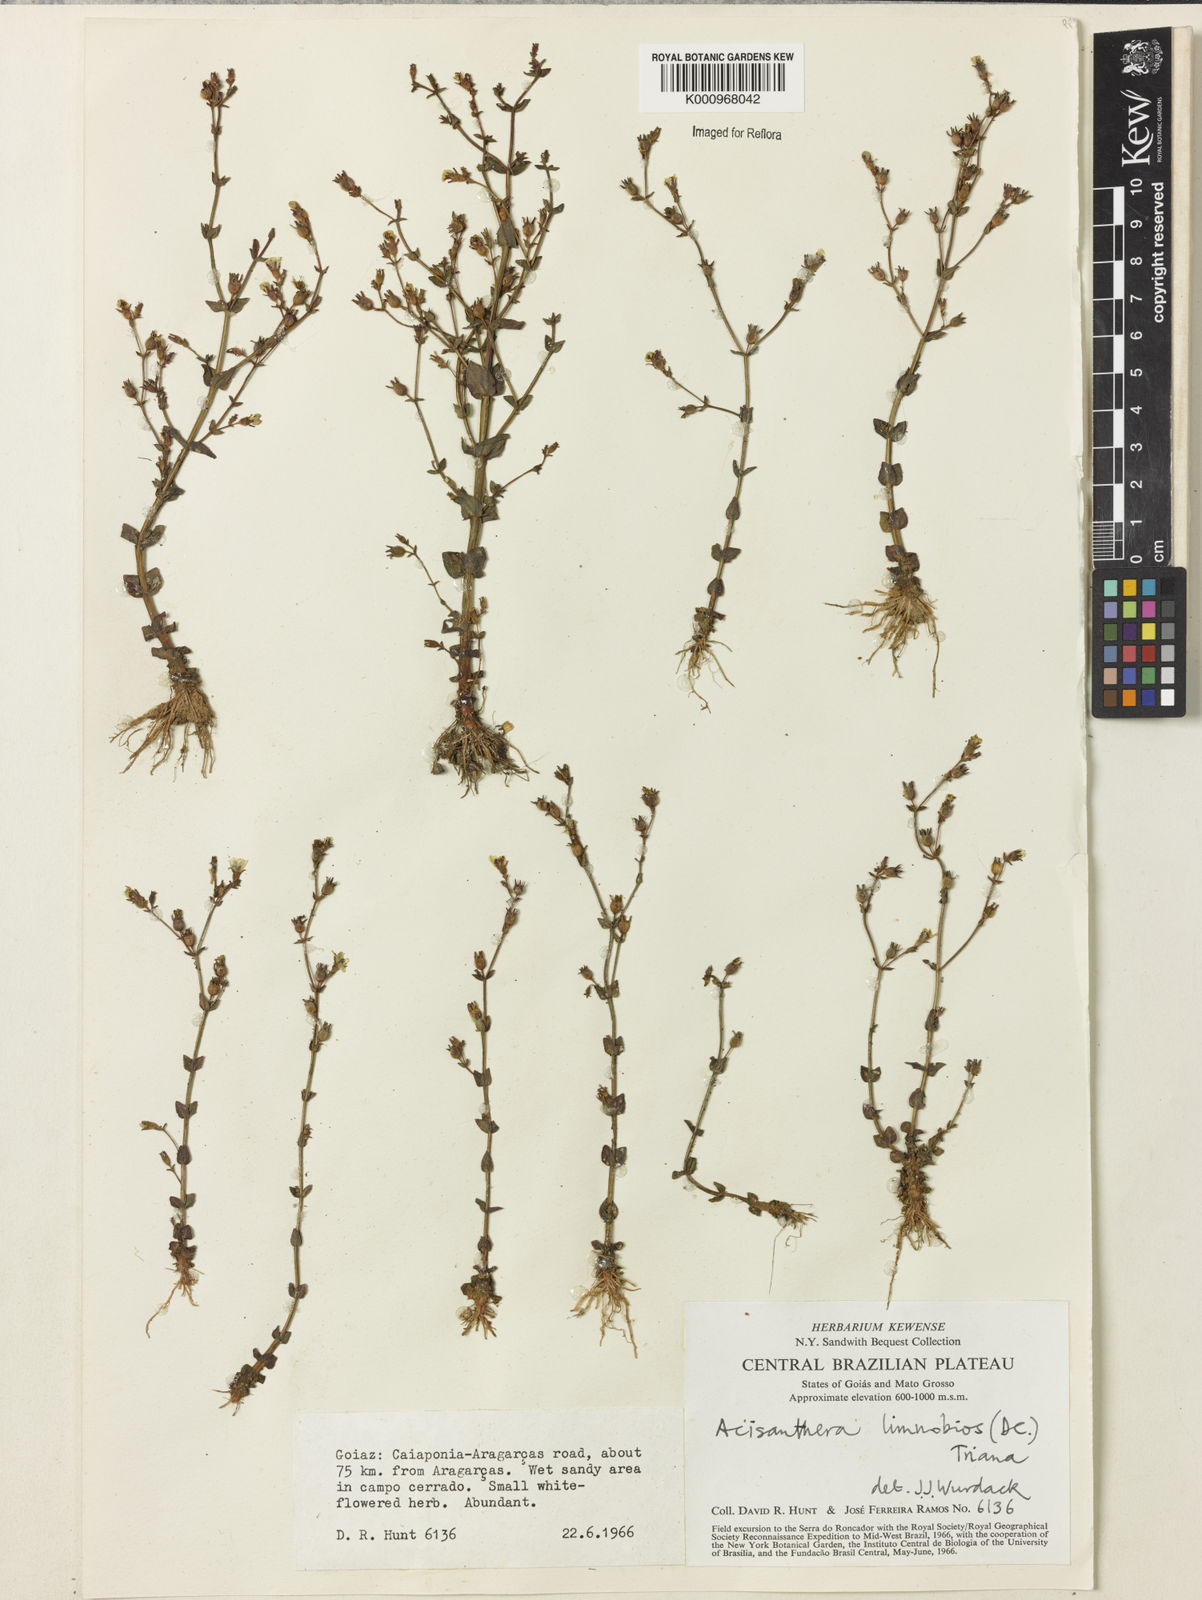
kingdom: Plantae
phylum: Tracheophyta
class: Magnoliopsida
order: Myrtales
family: Melastomataceae
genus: Acisanthera
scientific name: Acisanthera
